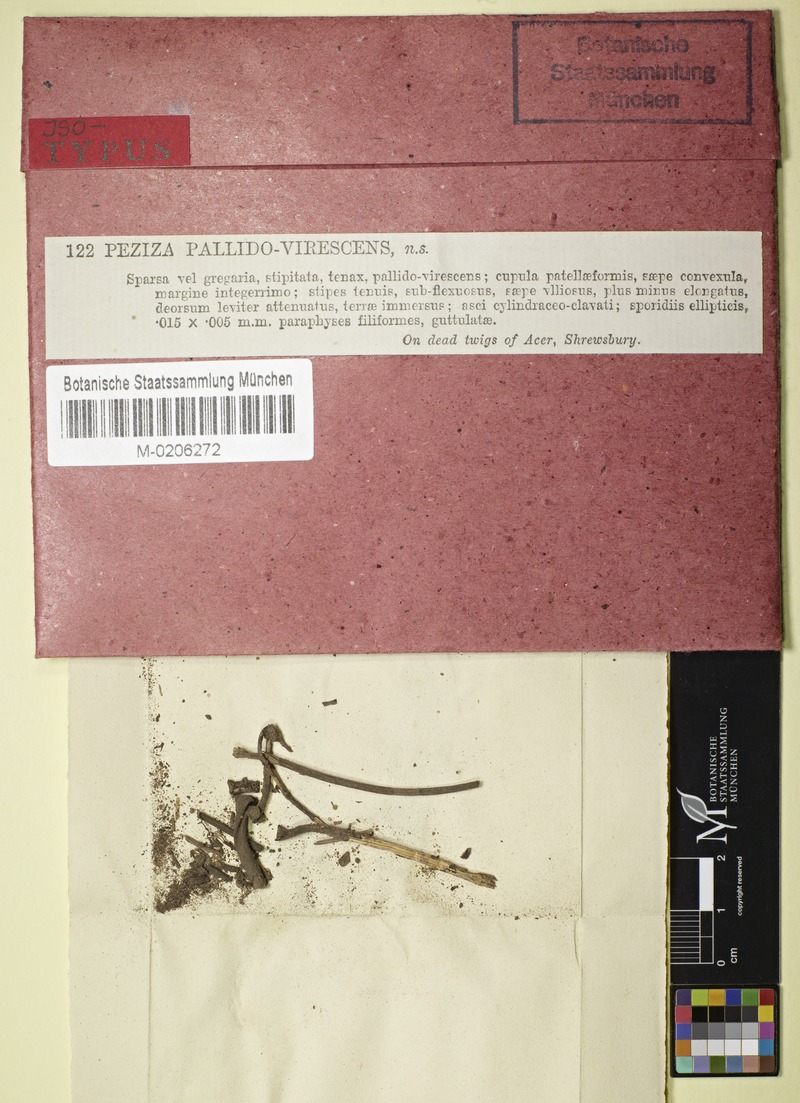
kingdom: Fungi
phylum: Ascomycota
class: Leotiomycetes
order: Helotiales
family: Rutstroemiaceae
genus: Lanzia
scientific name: Lanzia luteovirescens
